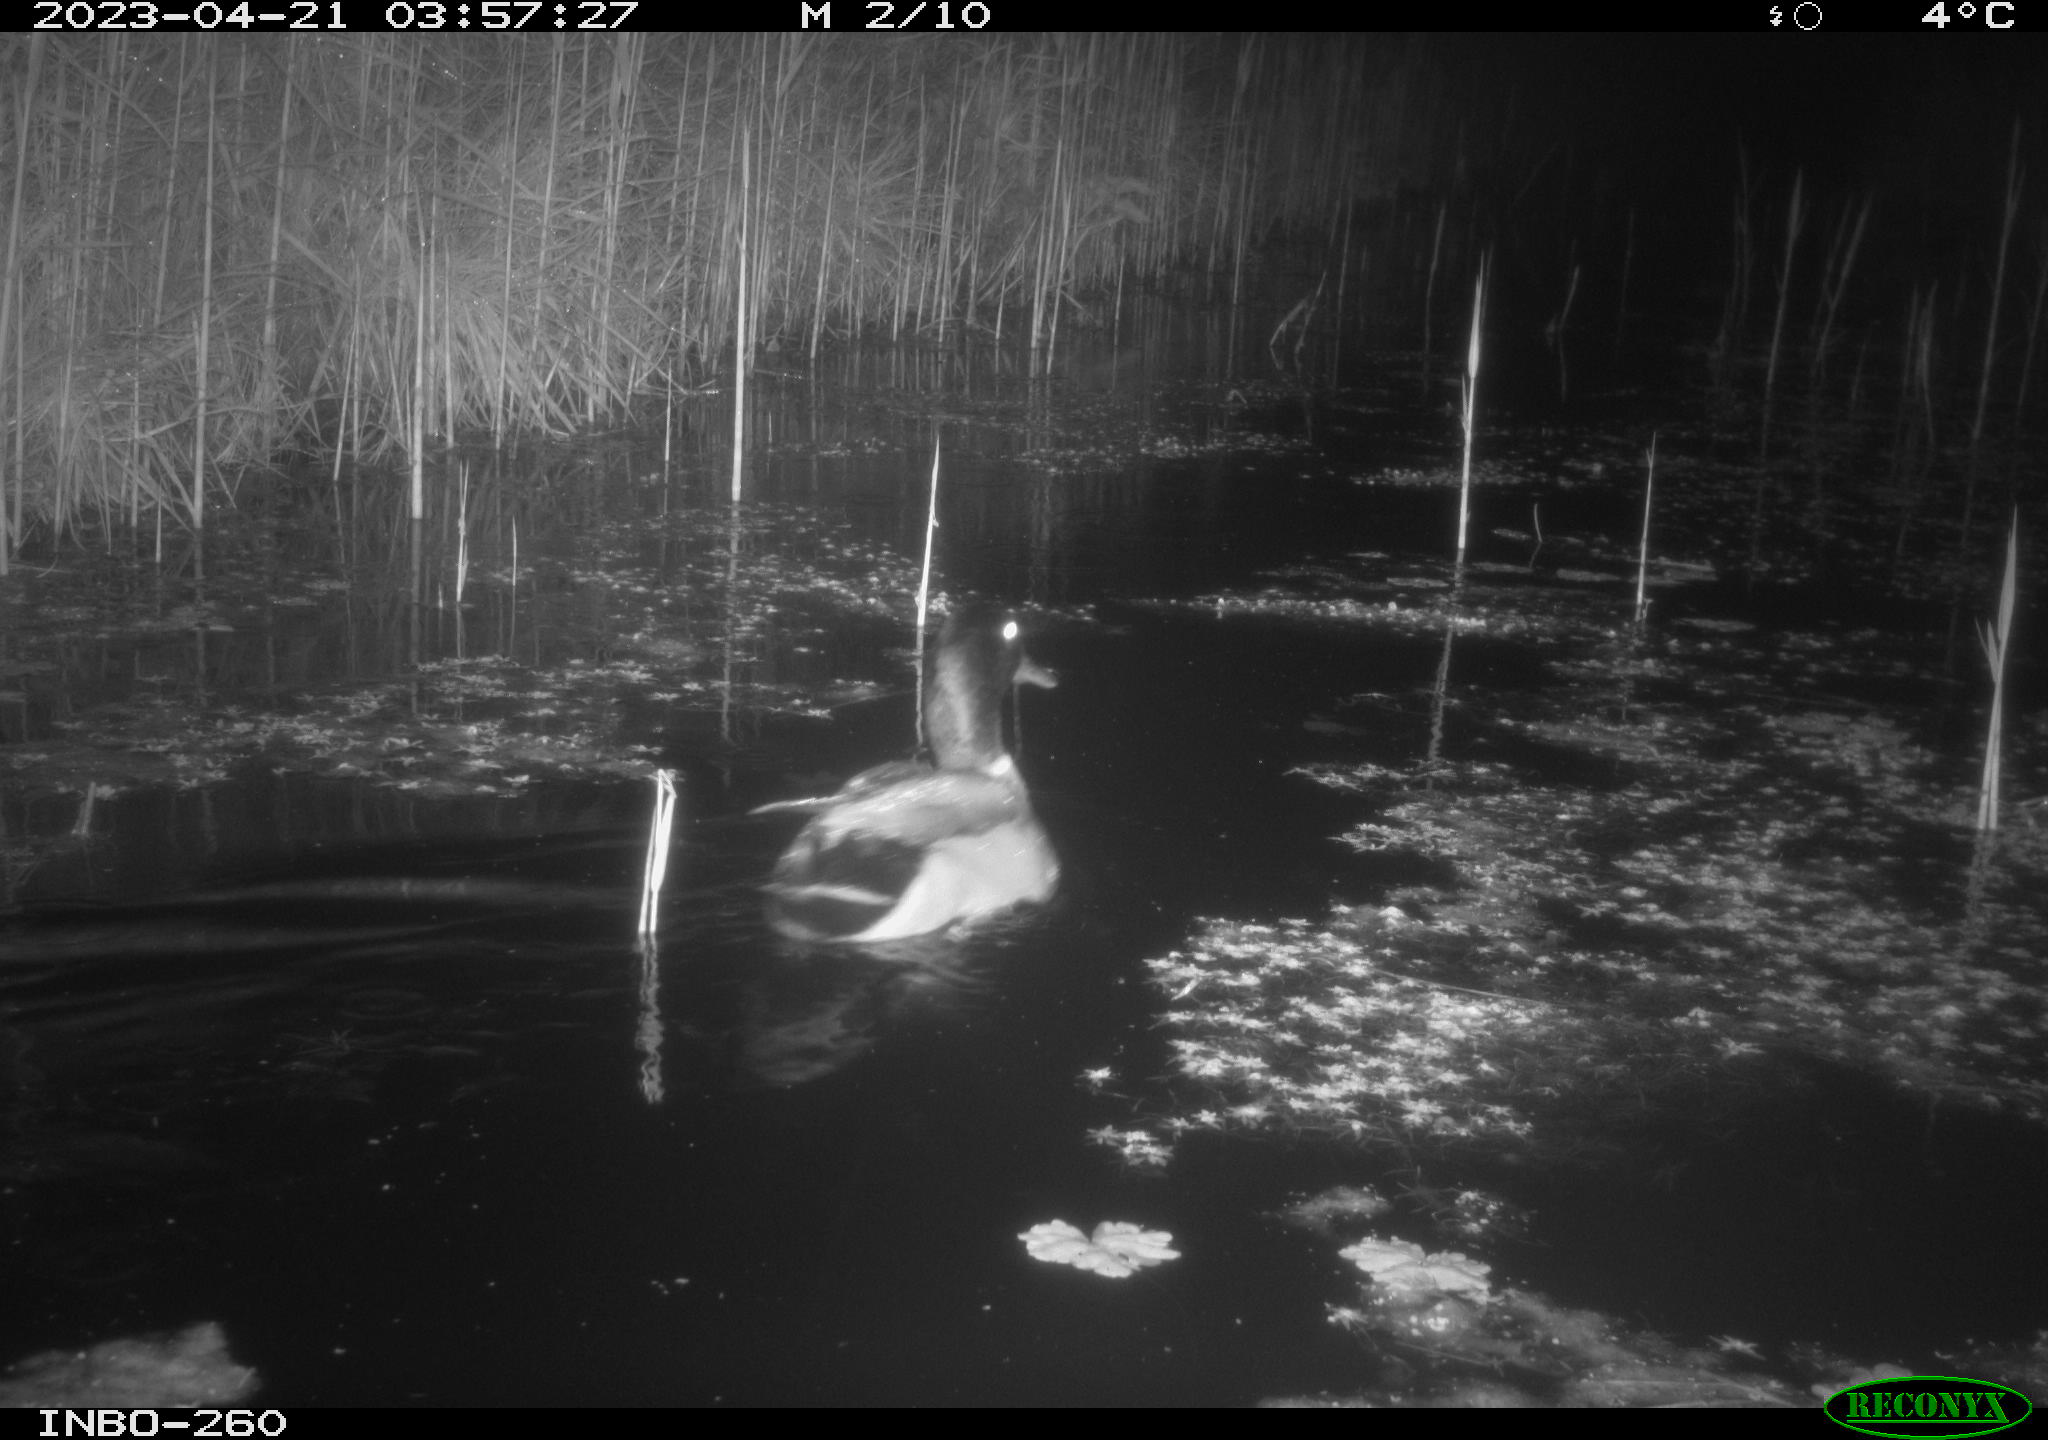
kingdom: Animalia
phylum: Chordata
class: Aves
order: Anseriformes
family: Anatidae
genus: Anas
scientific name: Anas
